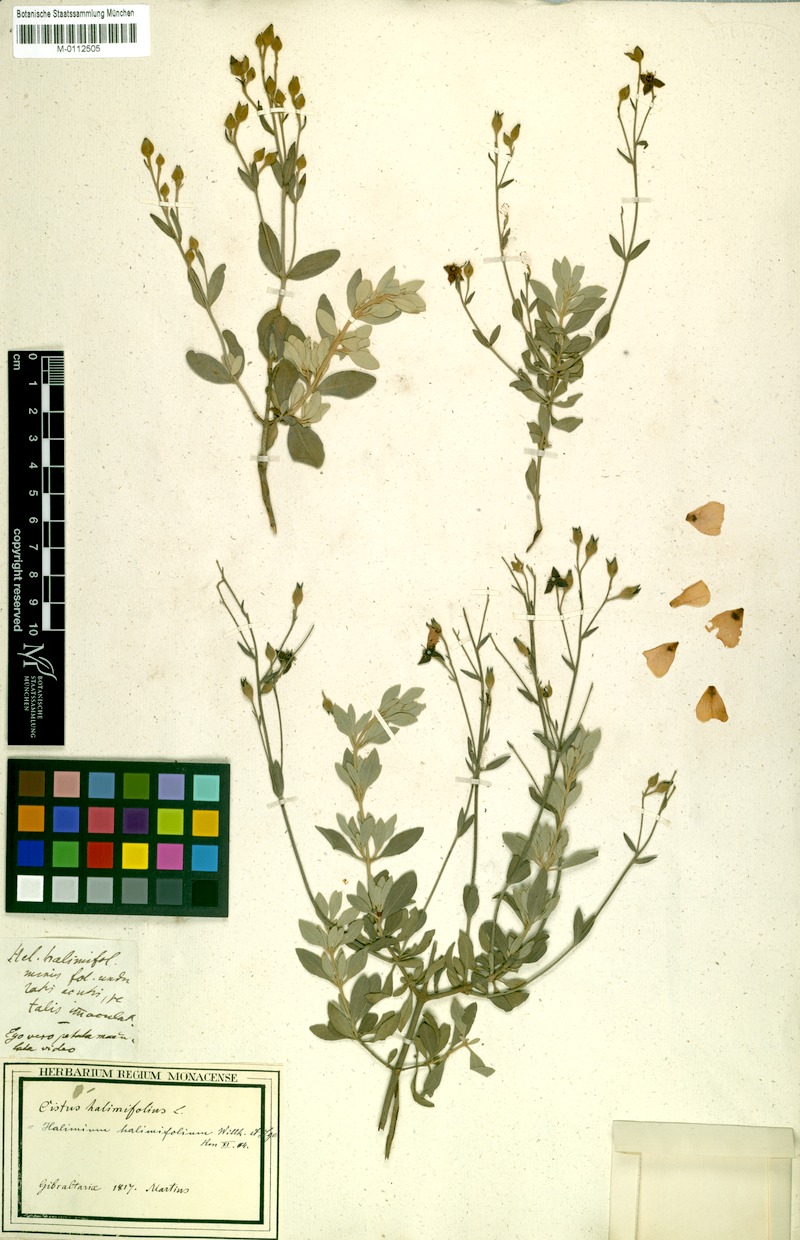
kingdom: Plantae
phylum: Tracheophyta
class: Magnoliopsida
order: Malvales
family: Cistaceae
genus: Halimium
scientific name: Halimium halimifolium
